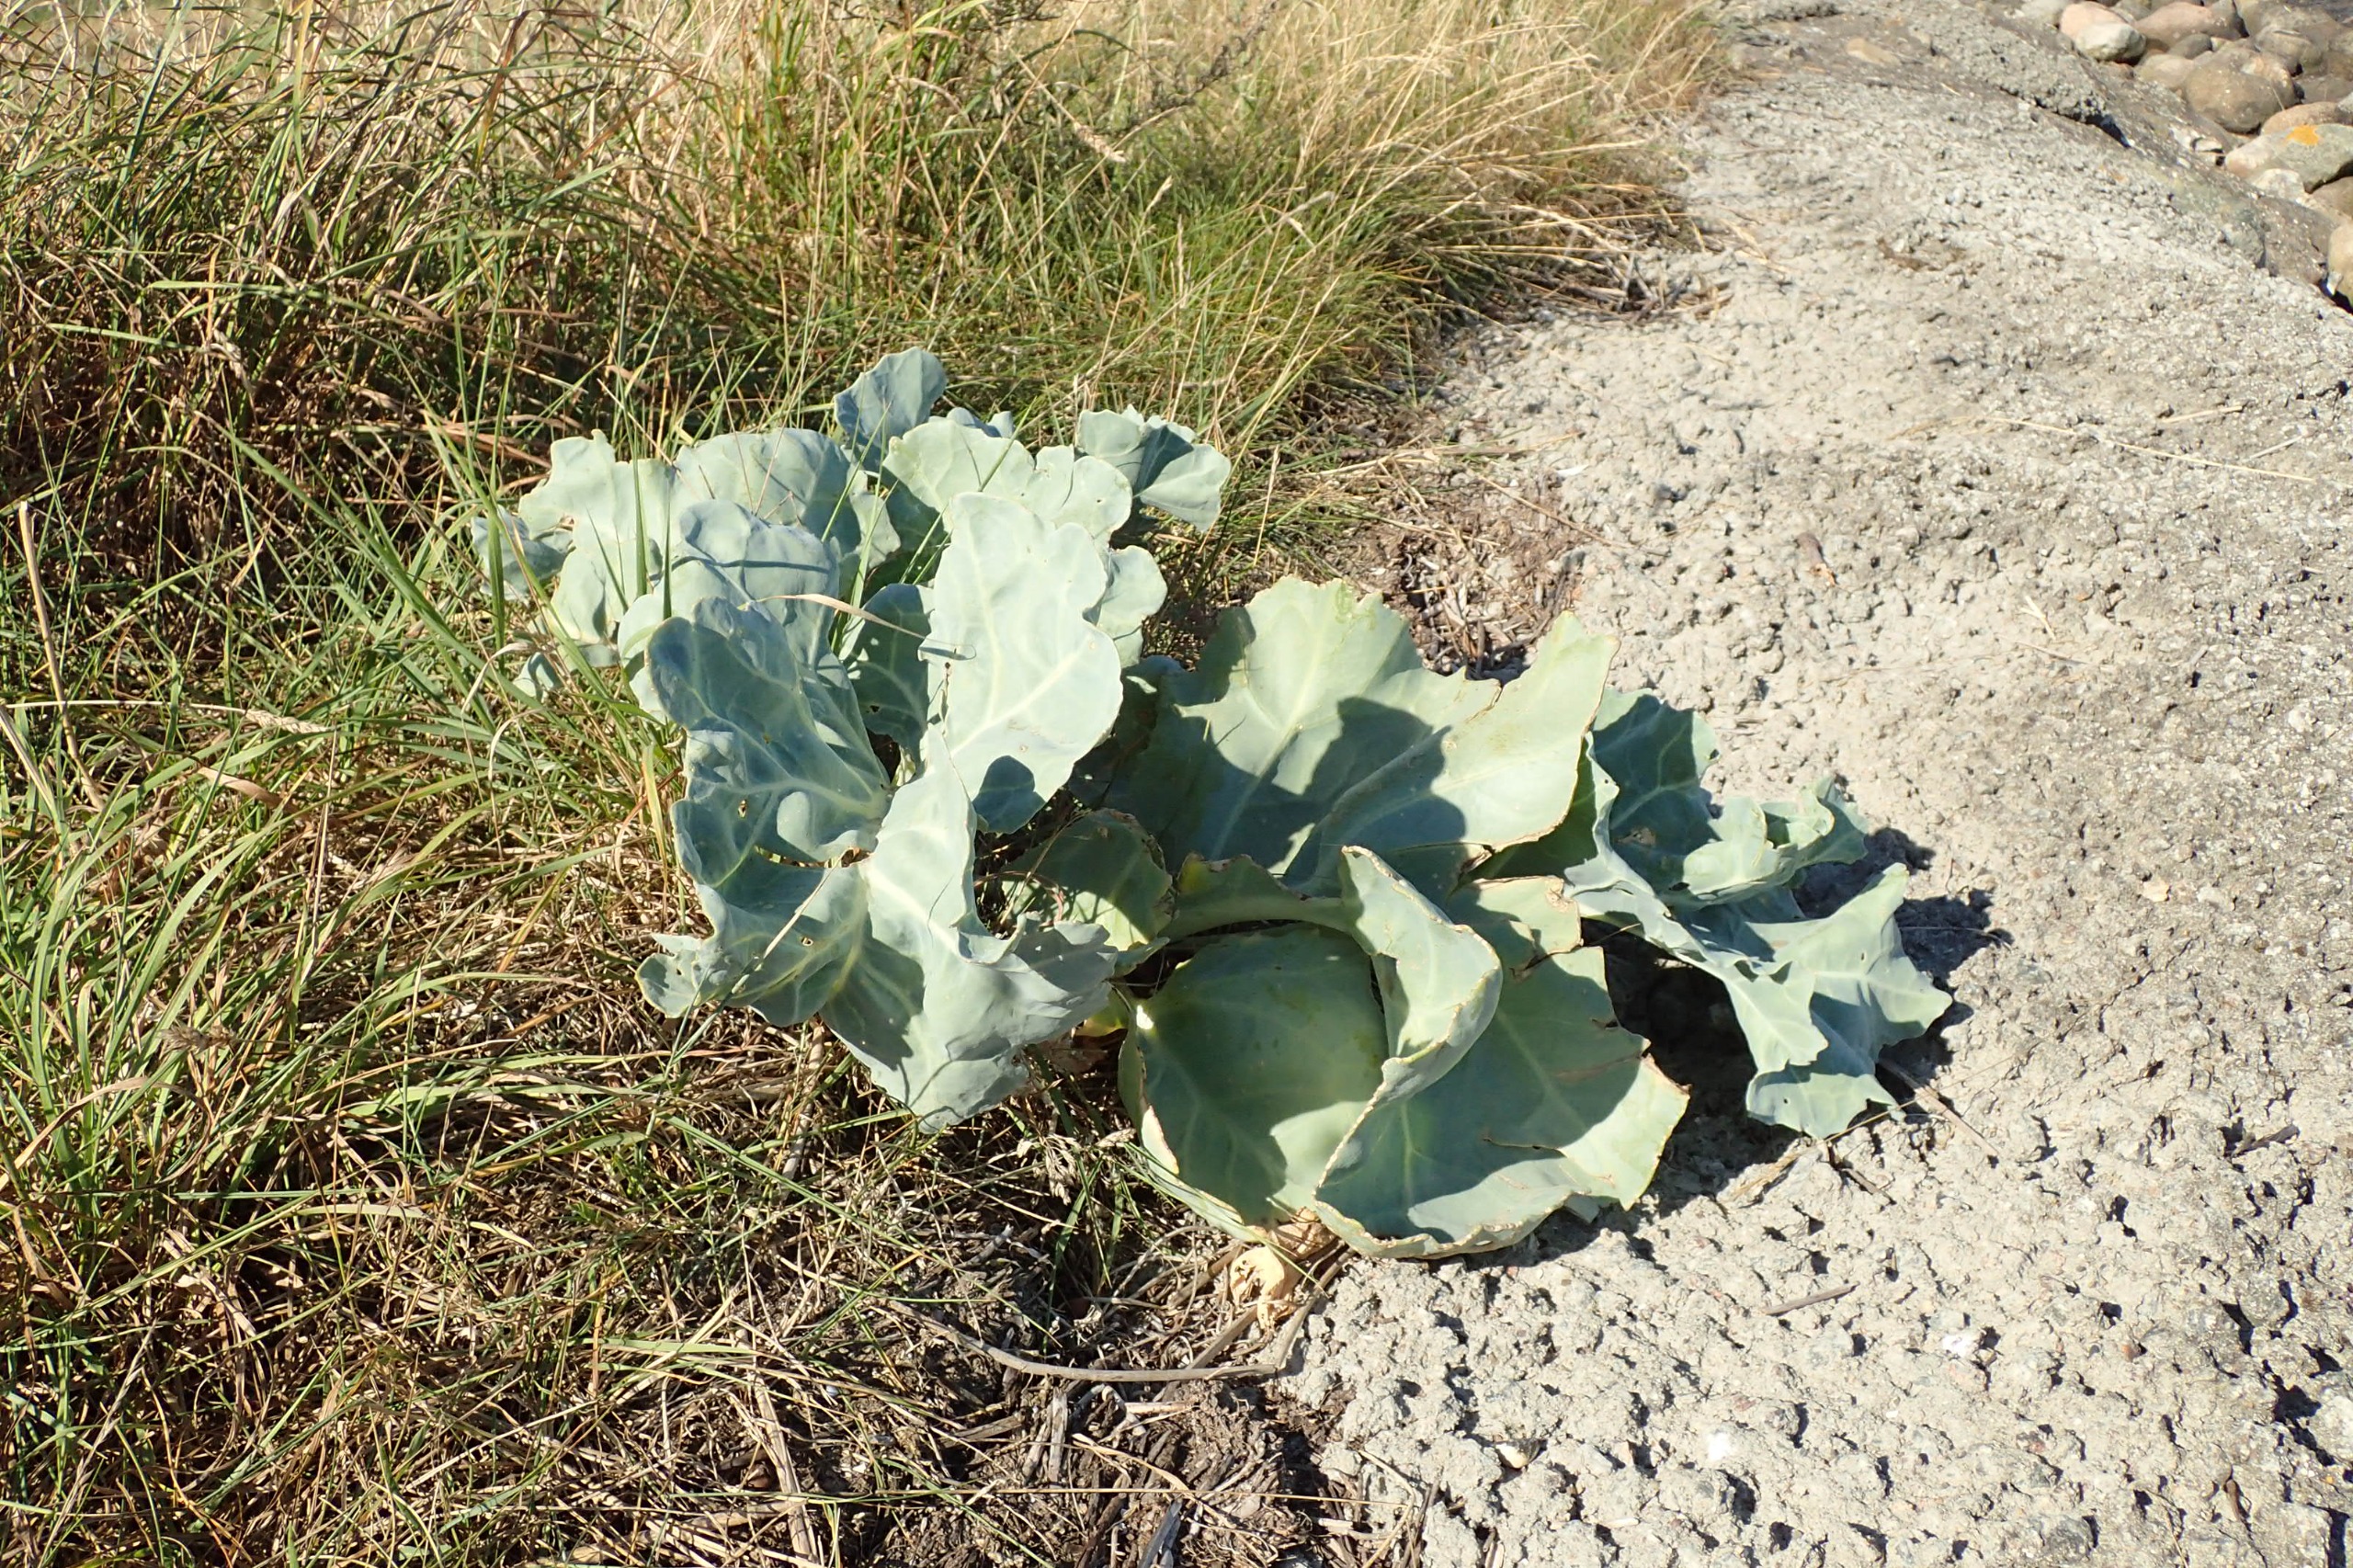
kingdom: Plantae
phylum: Tracheophyta
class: Magnoliopsida
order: Brassicales
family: Brassicaceae
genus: Crambe
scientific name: Crambe maritima
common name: Strandkål
